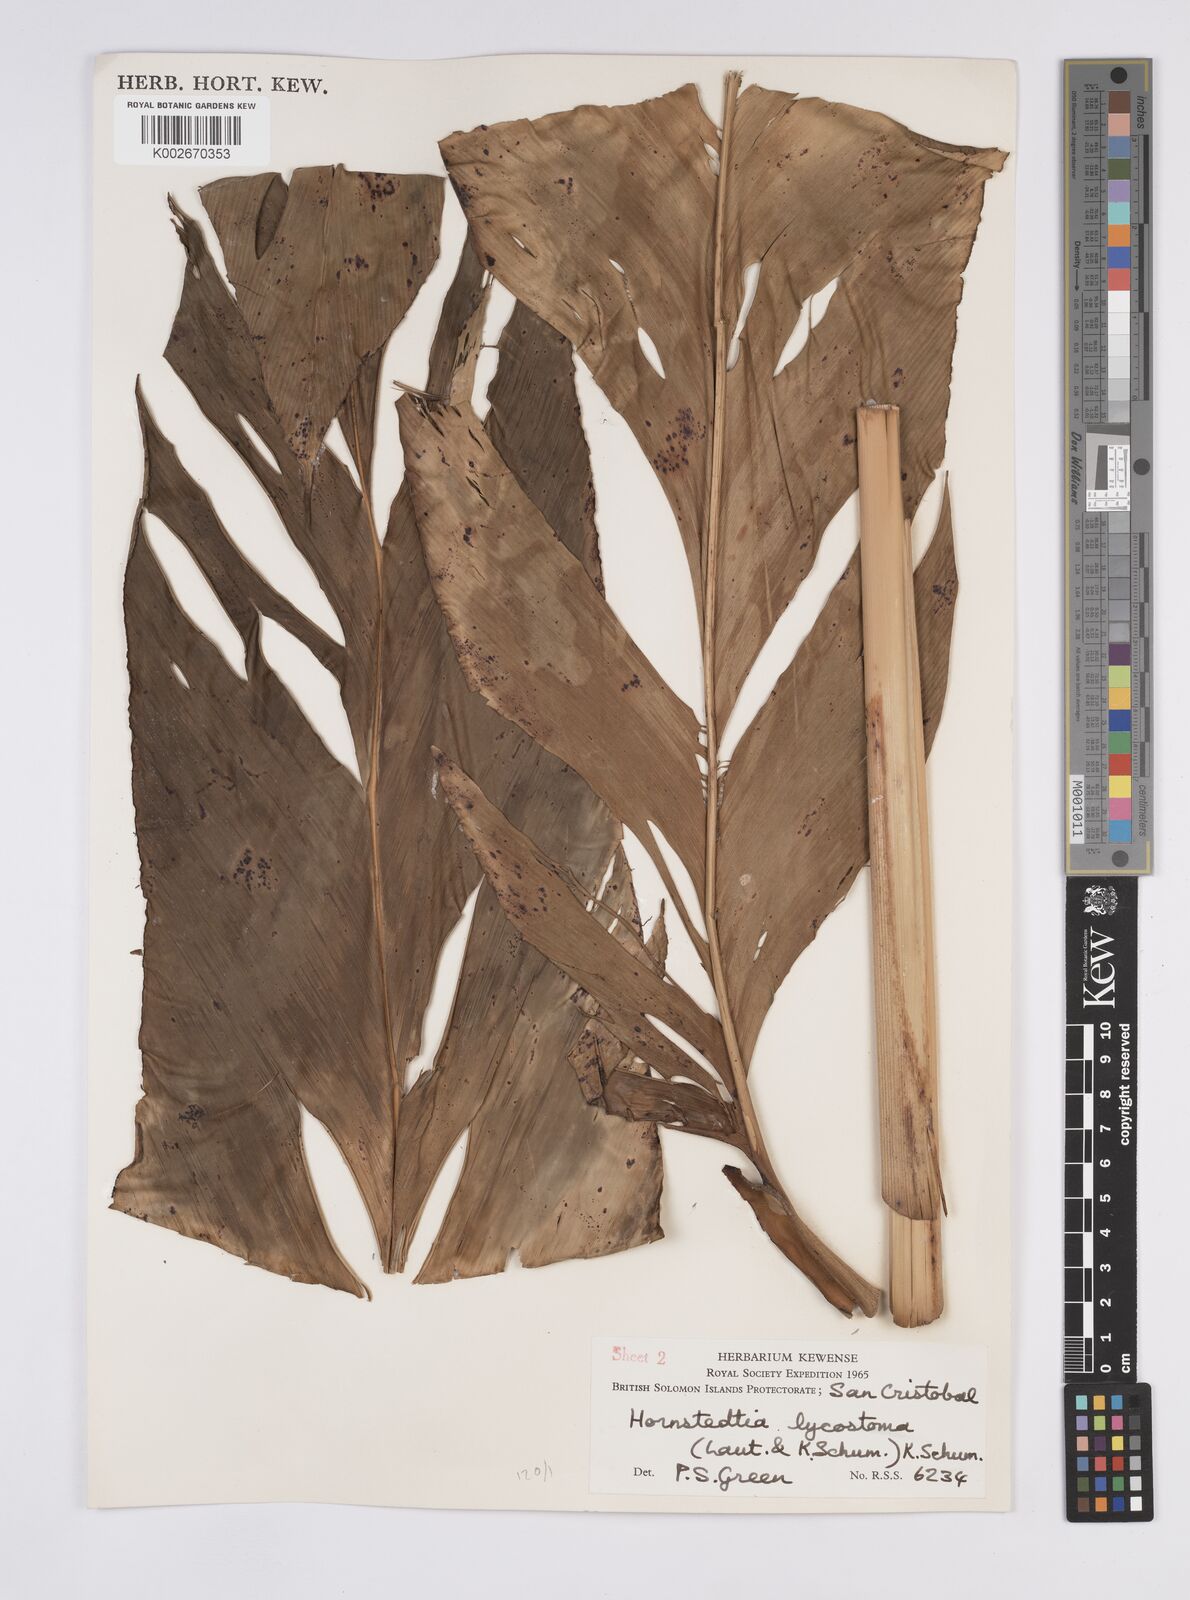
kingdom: Plantae
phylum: Tracheophyta
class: Liliopsida
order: Zingiberales
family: Zingiberaceae
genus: Hornstedtia
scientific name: Hornstedtia scottiana
